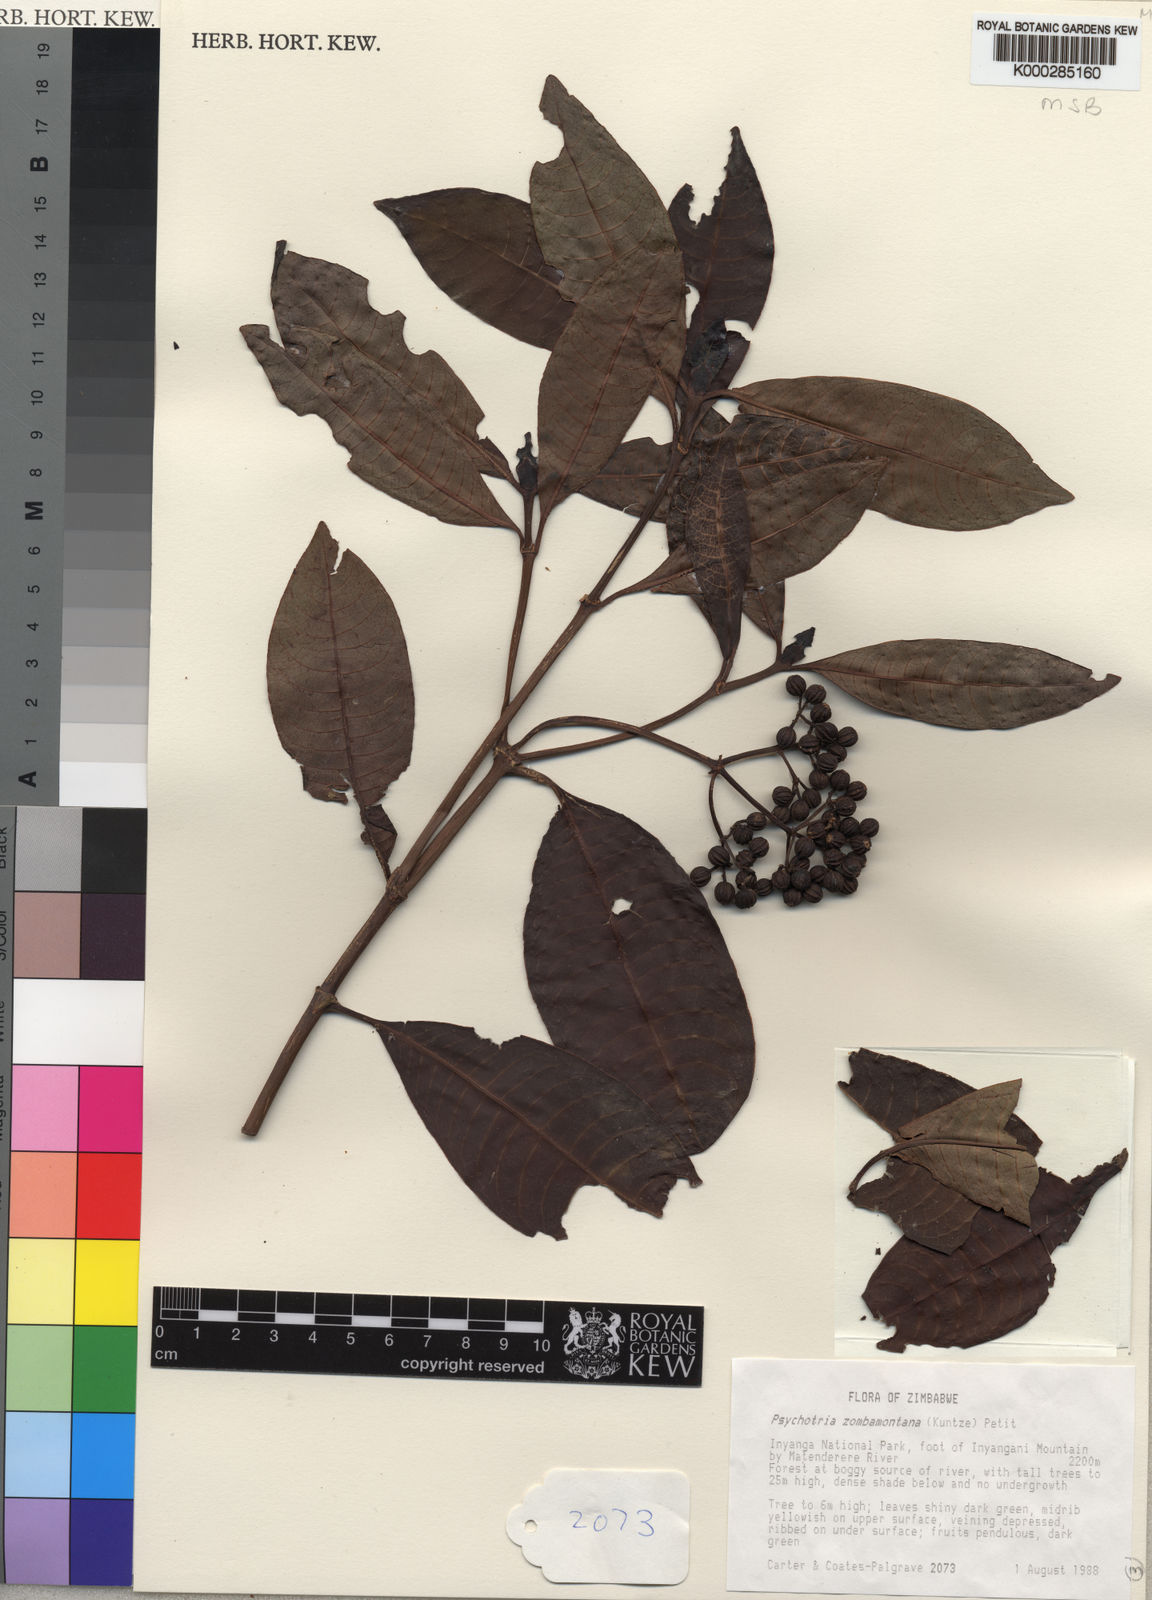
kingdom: Plantae
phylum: Tracheophyta
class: Magnoliopsida
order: Gentianales
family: Rubiaceae
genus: Psychotria
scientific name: Psychotria zombamontana
